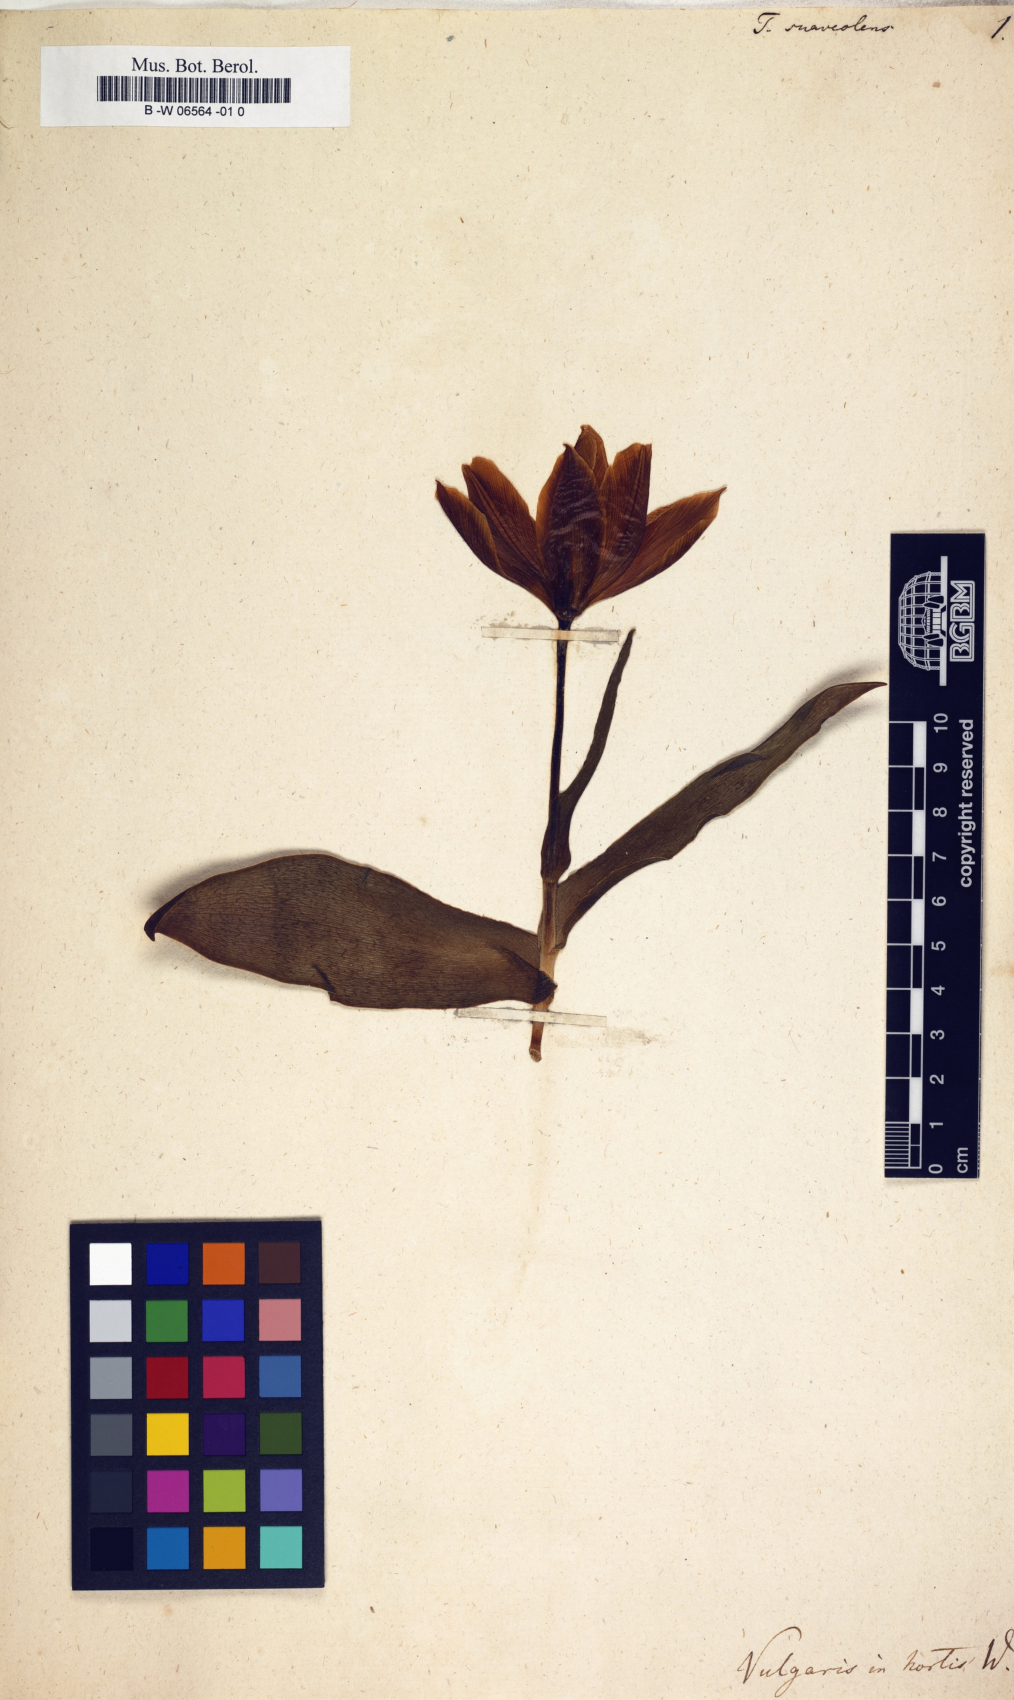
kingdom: Plantae
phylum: Tracheophyta
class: Liliopsida
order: Liliales
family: Liliaceae
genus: Tulipa
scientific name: Tulipa suaveolens
